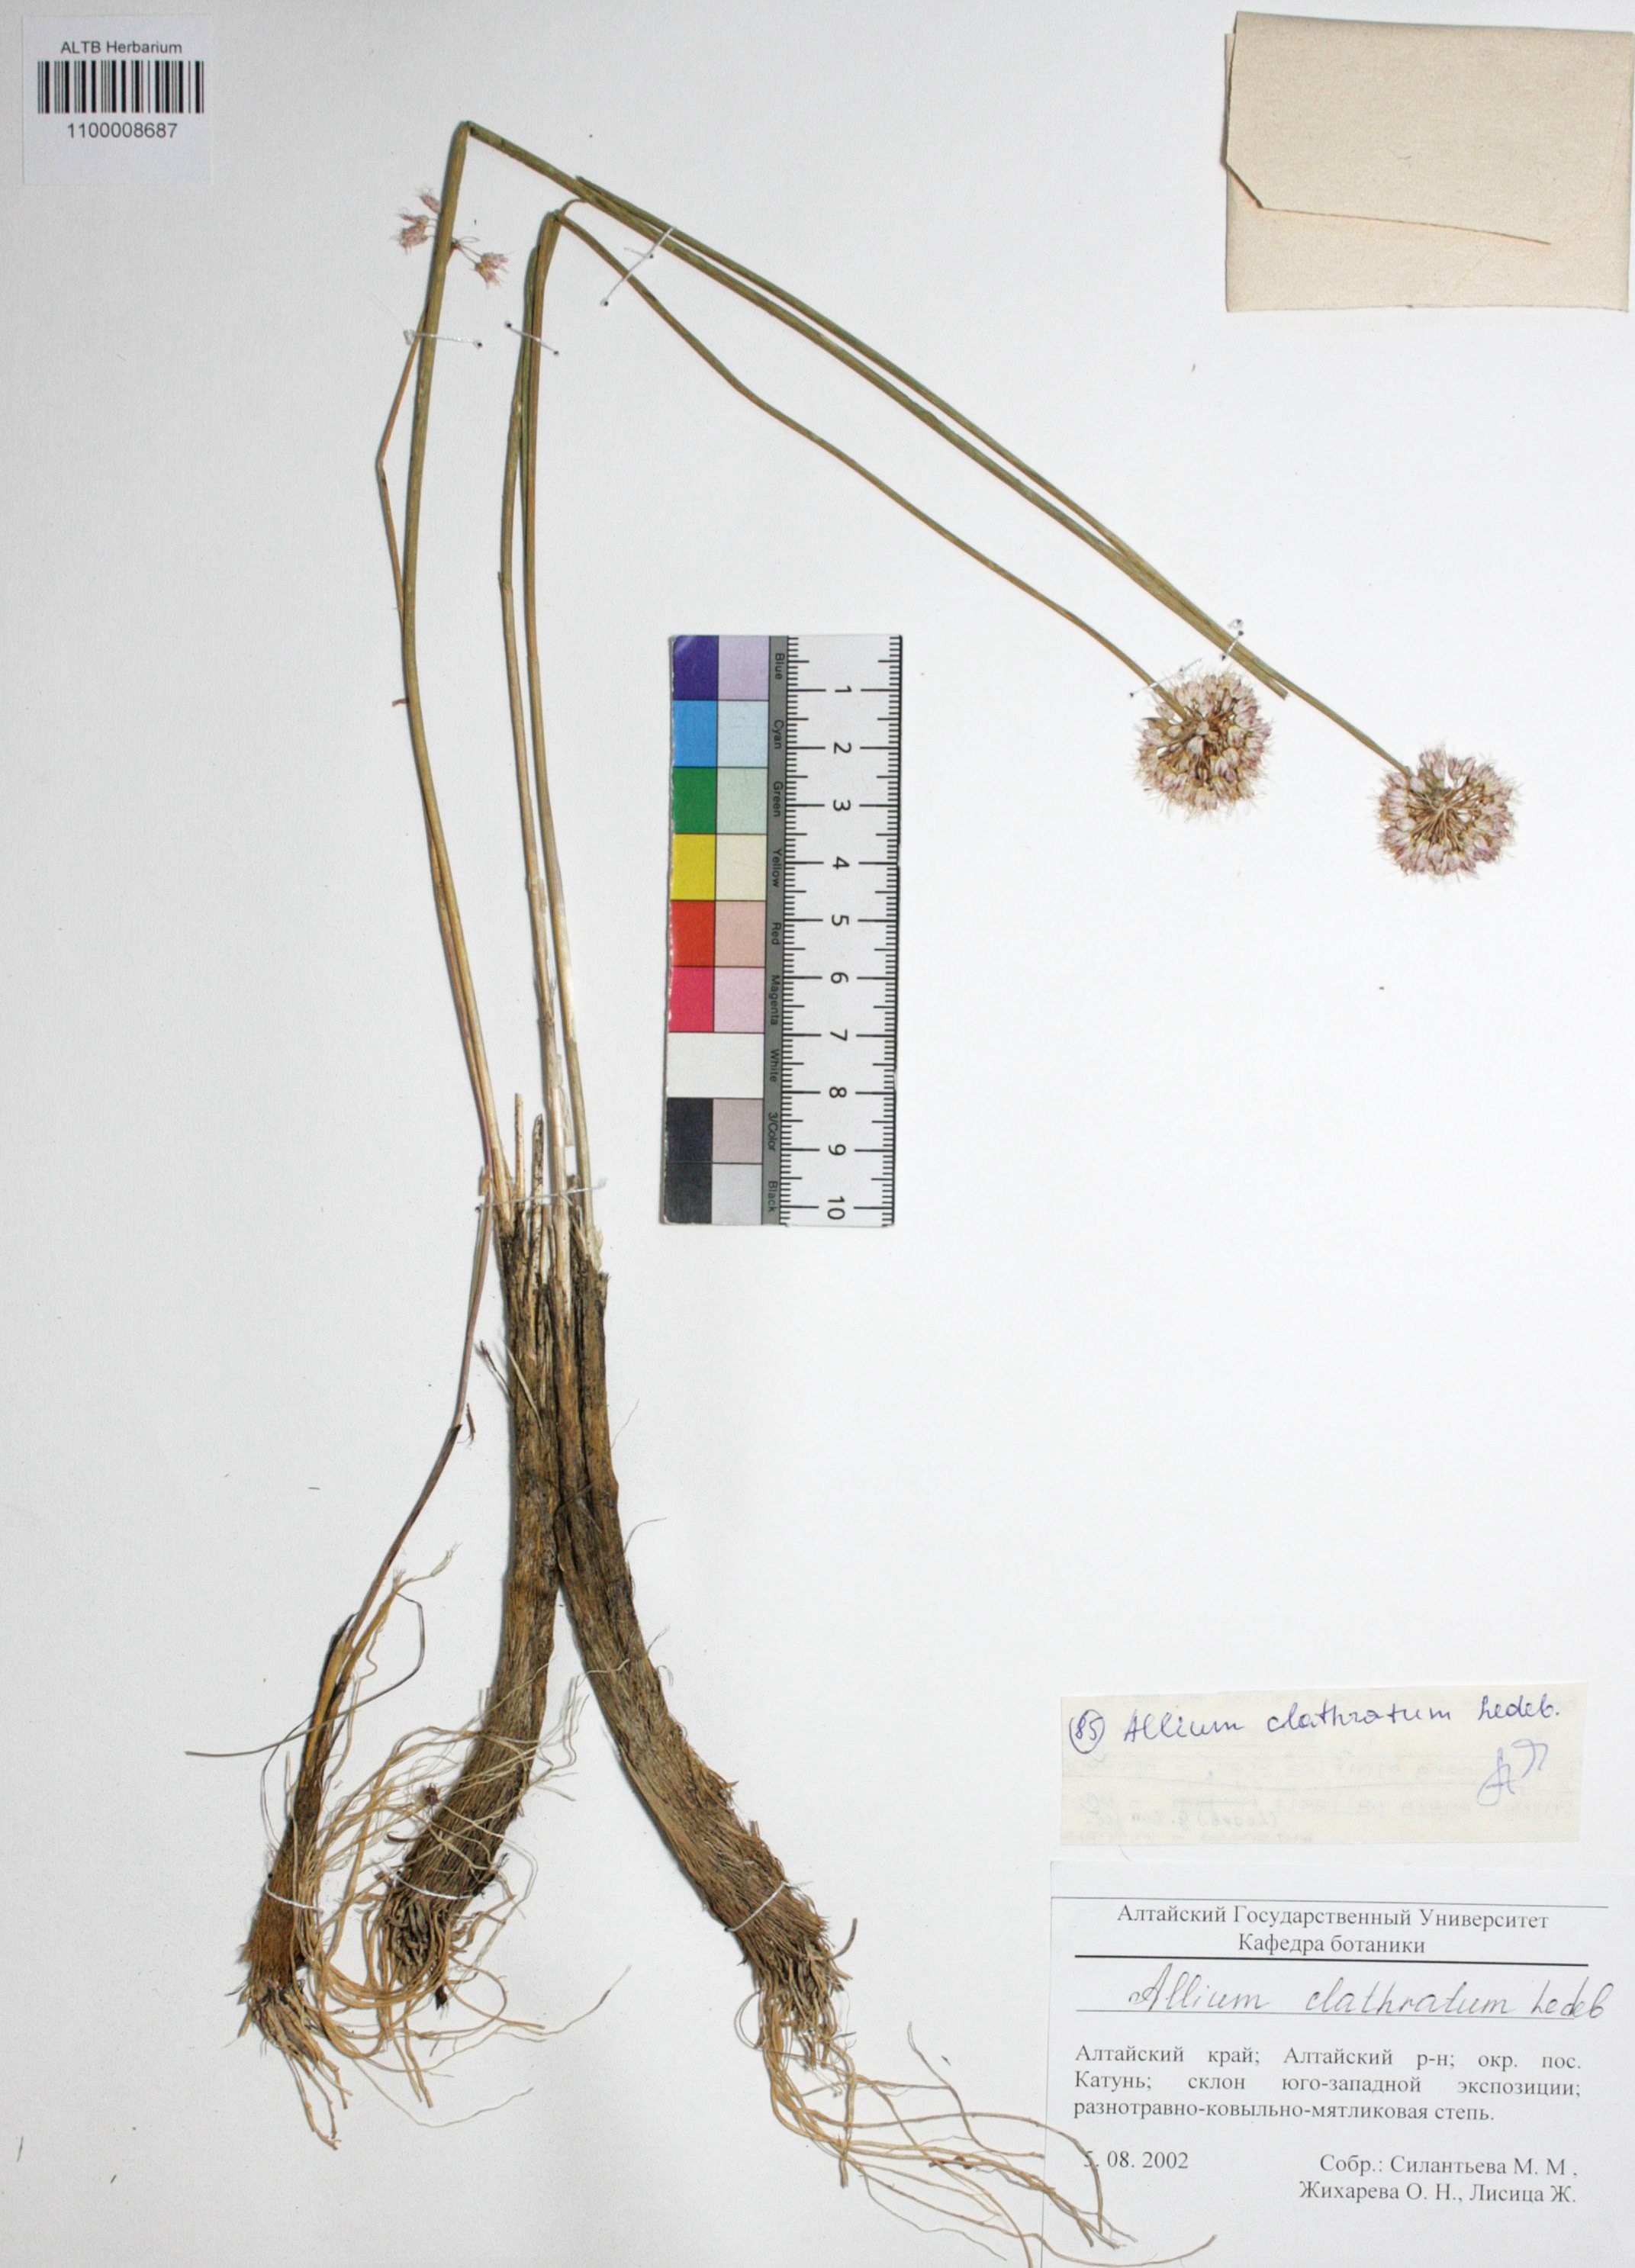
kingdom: Plantae
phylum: Tracheophyta
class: Liliopsida
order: Asparagales
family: Amaryllidaceae
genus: Allium
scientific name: Allium clathratum
